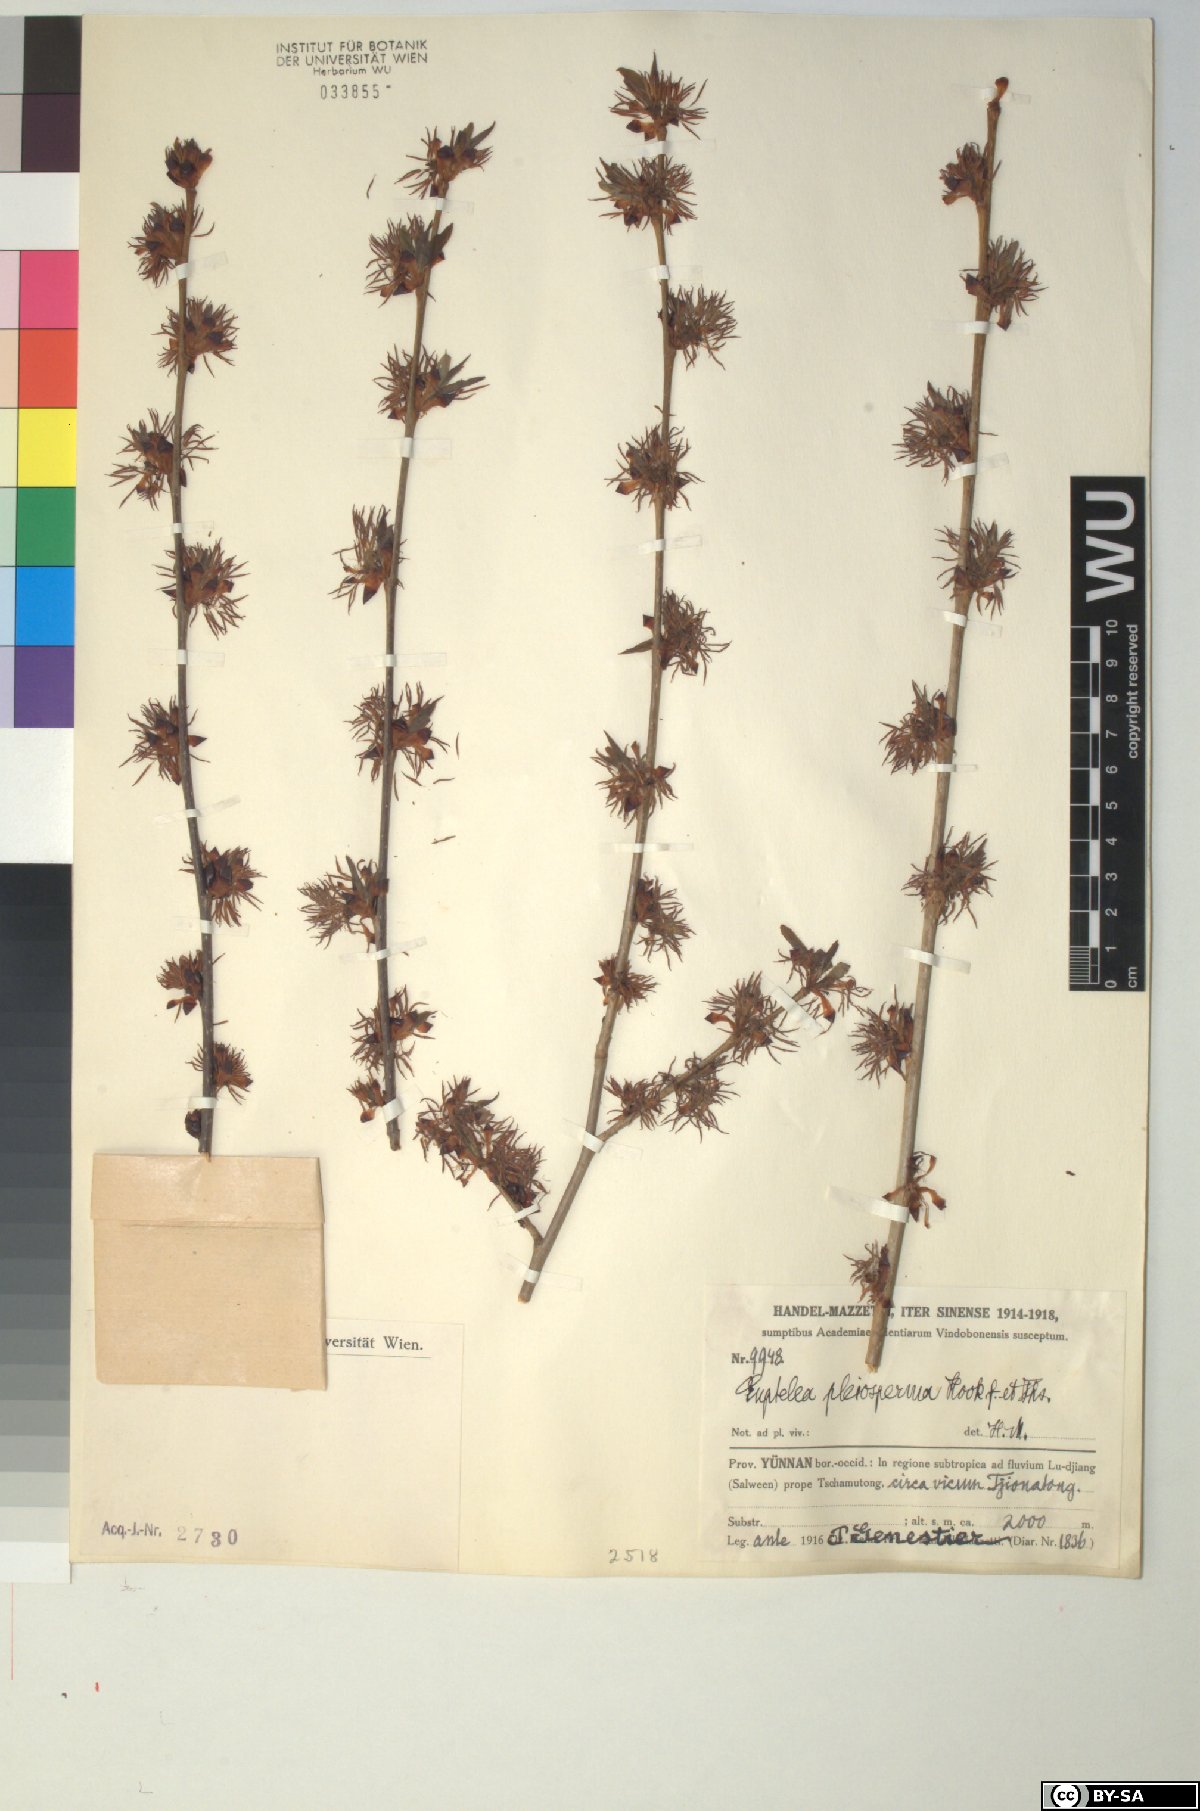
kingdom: Plantae
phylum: Tracheophyta
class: Magnoliopsida
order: Ranunculales
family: Eupteleaceae
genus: Euptelea
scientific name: Euptelea pleiosperma
